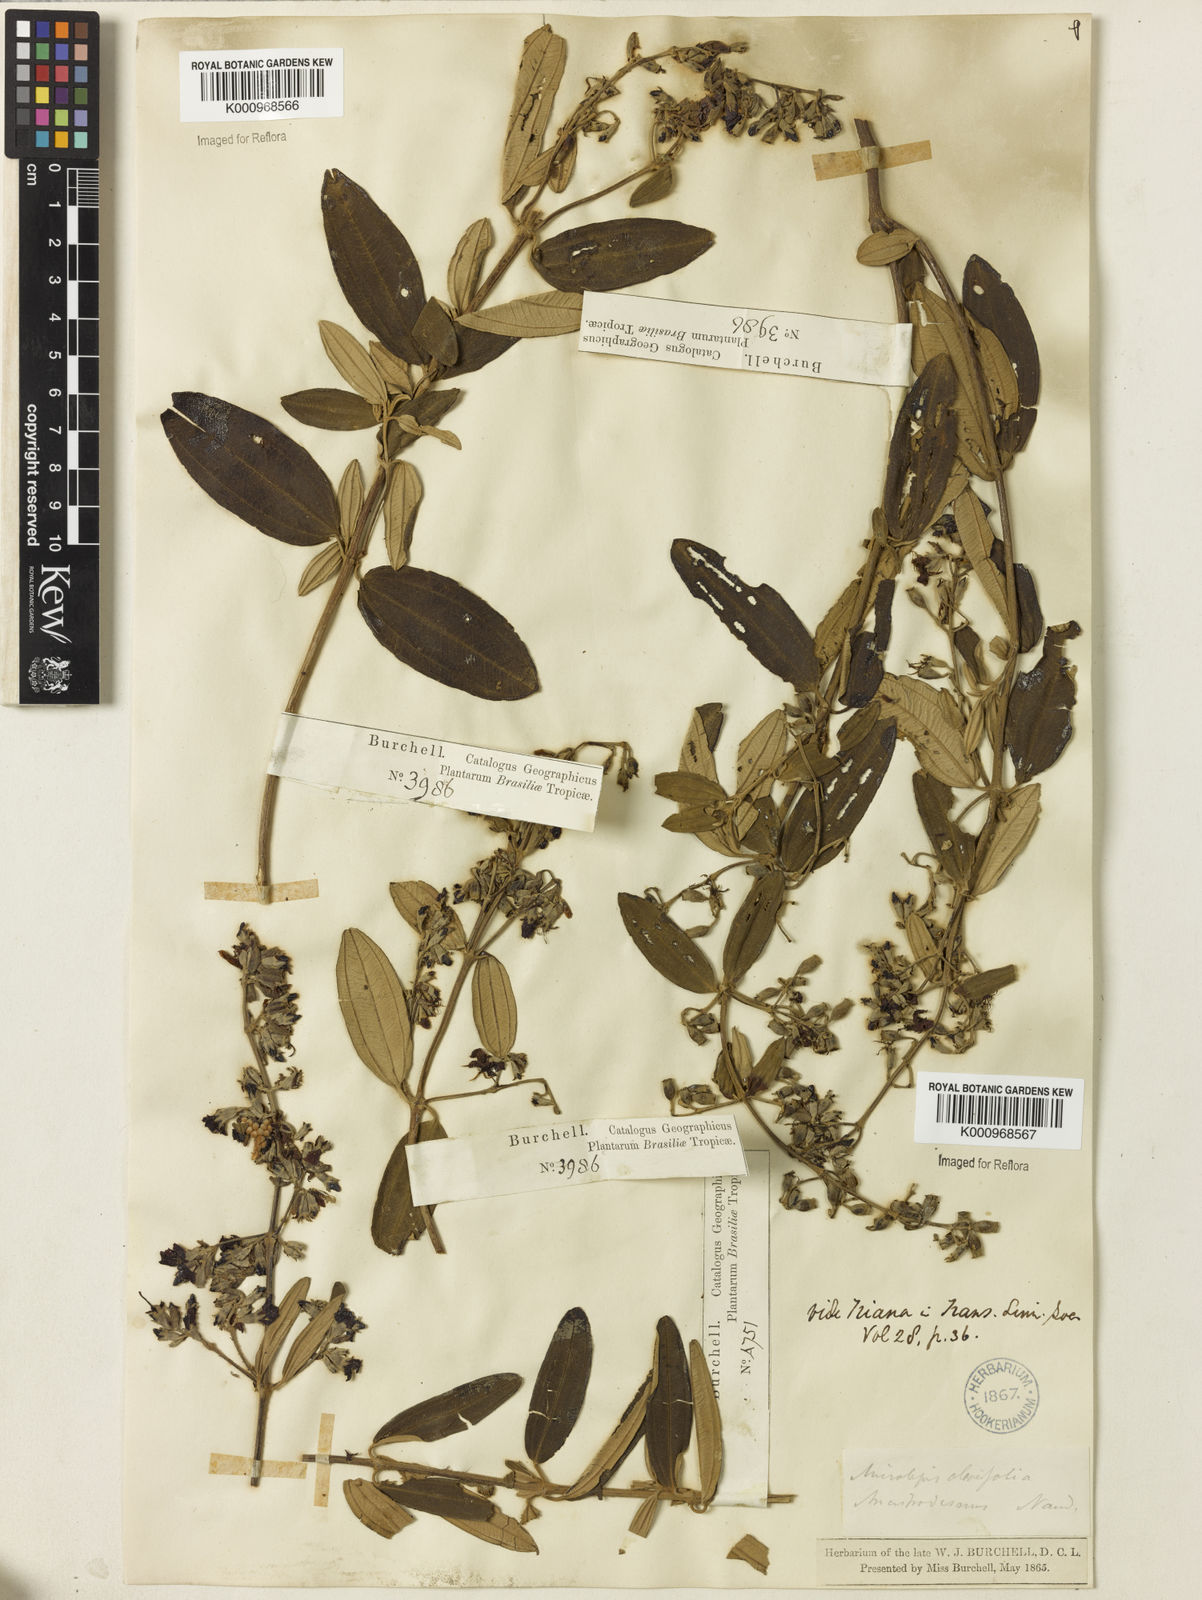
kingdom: Plantae
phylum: Tracheophyta
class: Magnoliopsida
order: Myrtales
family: Melastomataceae
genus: Pleroma
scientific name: Pleroma oleifolia
